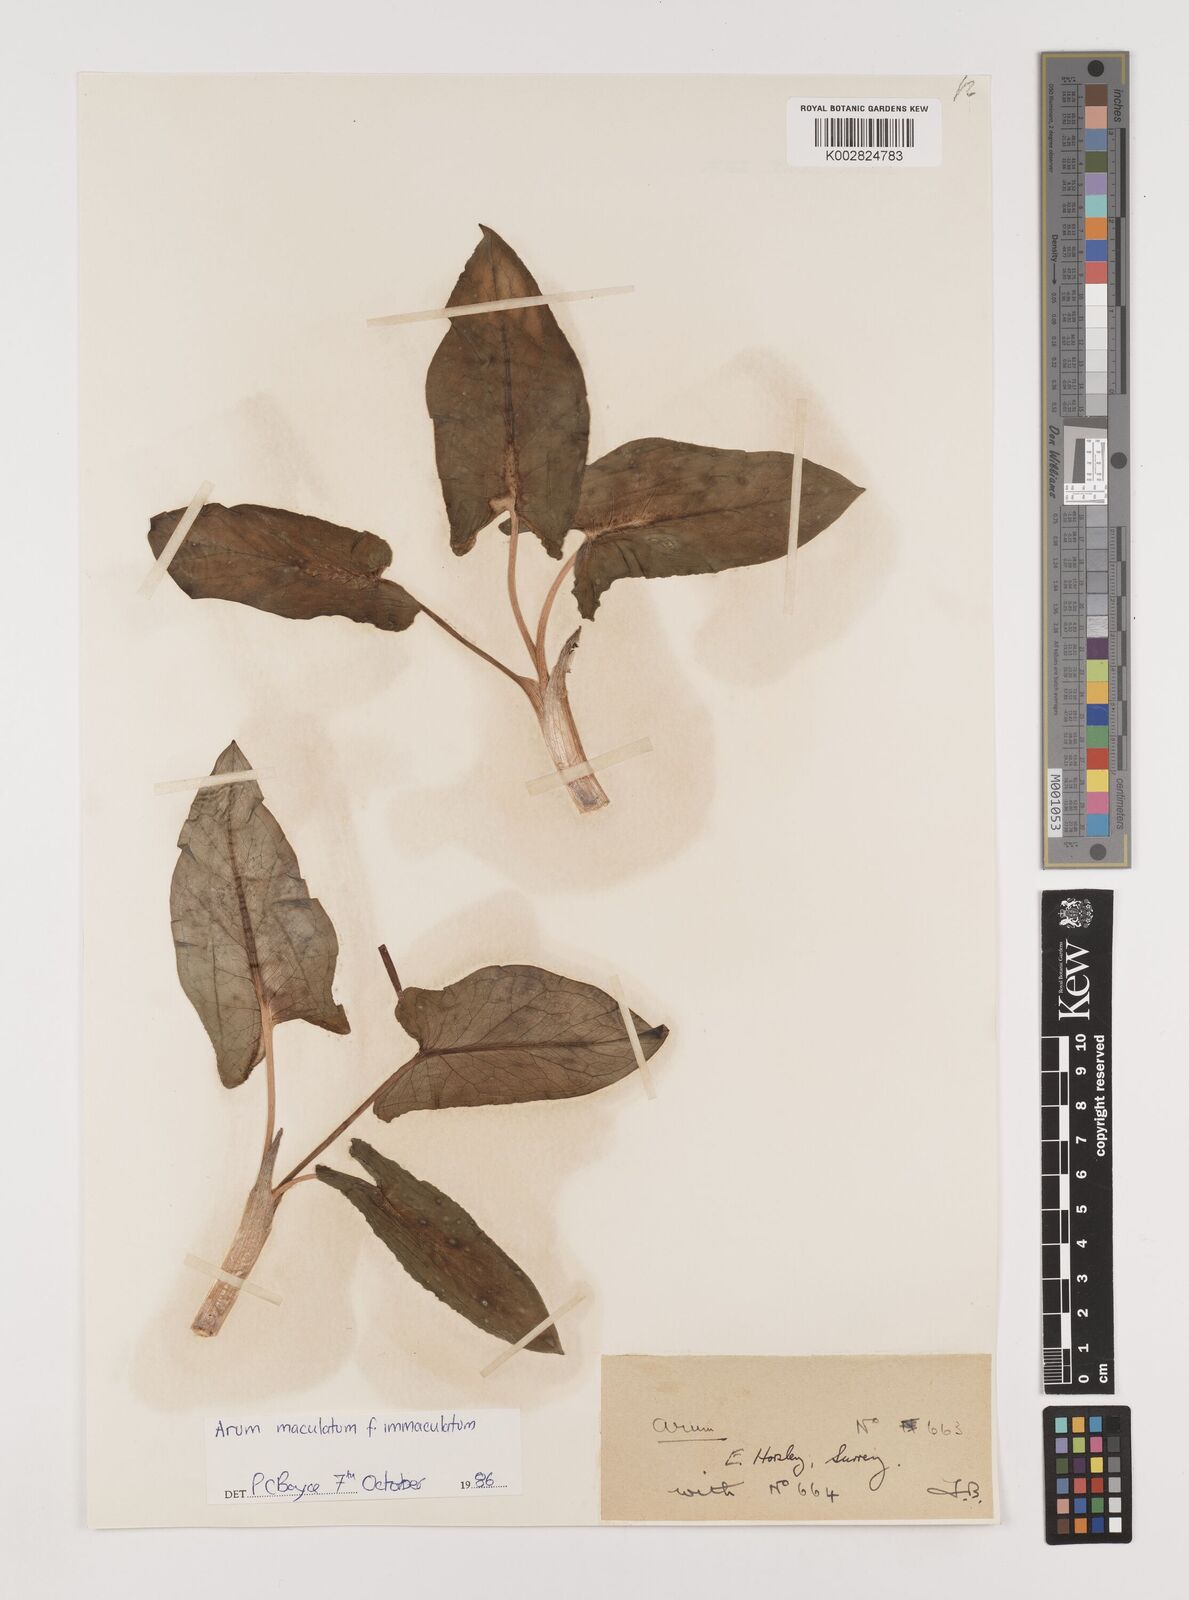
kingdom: Plantae
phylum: Tracheophyta
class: Liliopsida
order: Alismatales
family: Araceae
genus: Arum
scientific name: Arum maculatum
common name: Lords-and-ladies
